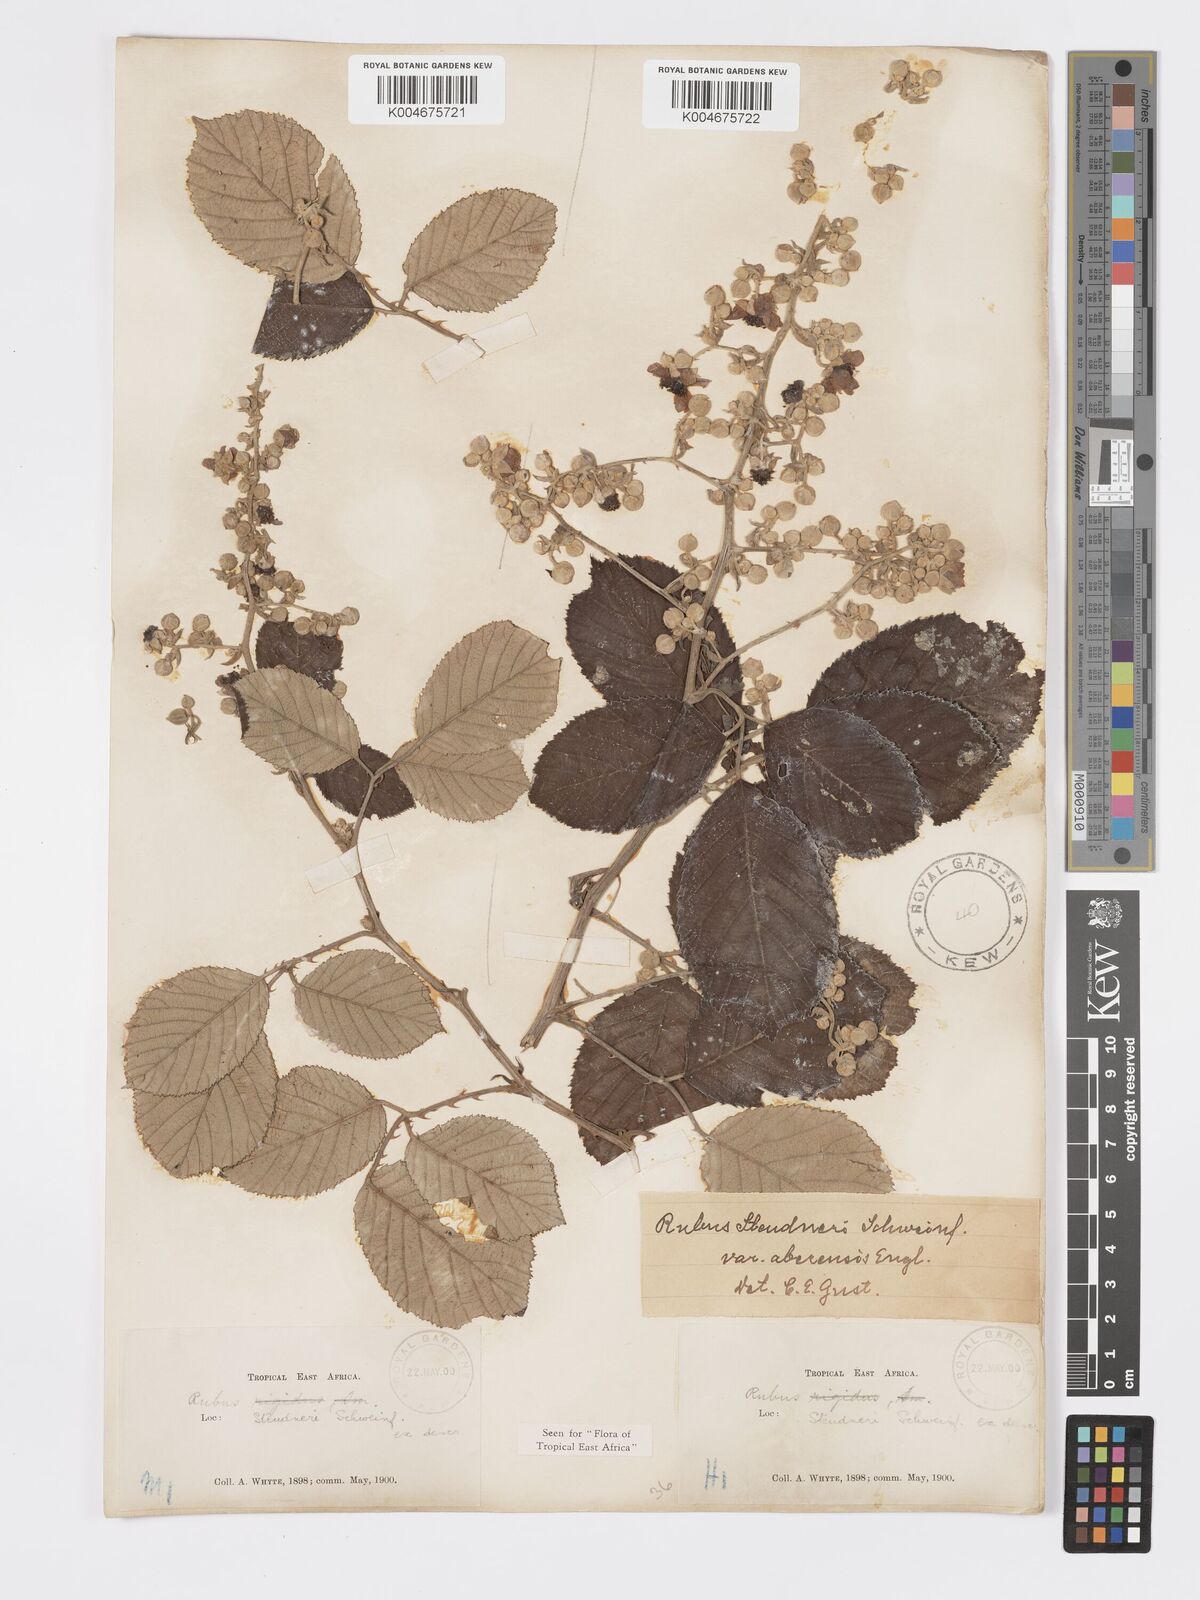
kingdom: Plantae
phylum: Tracheophyta
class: Magnoliopsida
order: Rosales
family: Rosaceae
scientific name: Rosaceae
